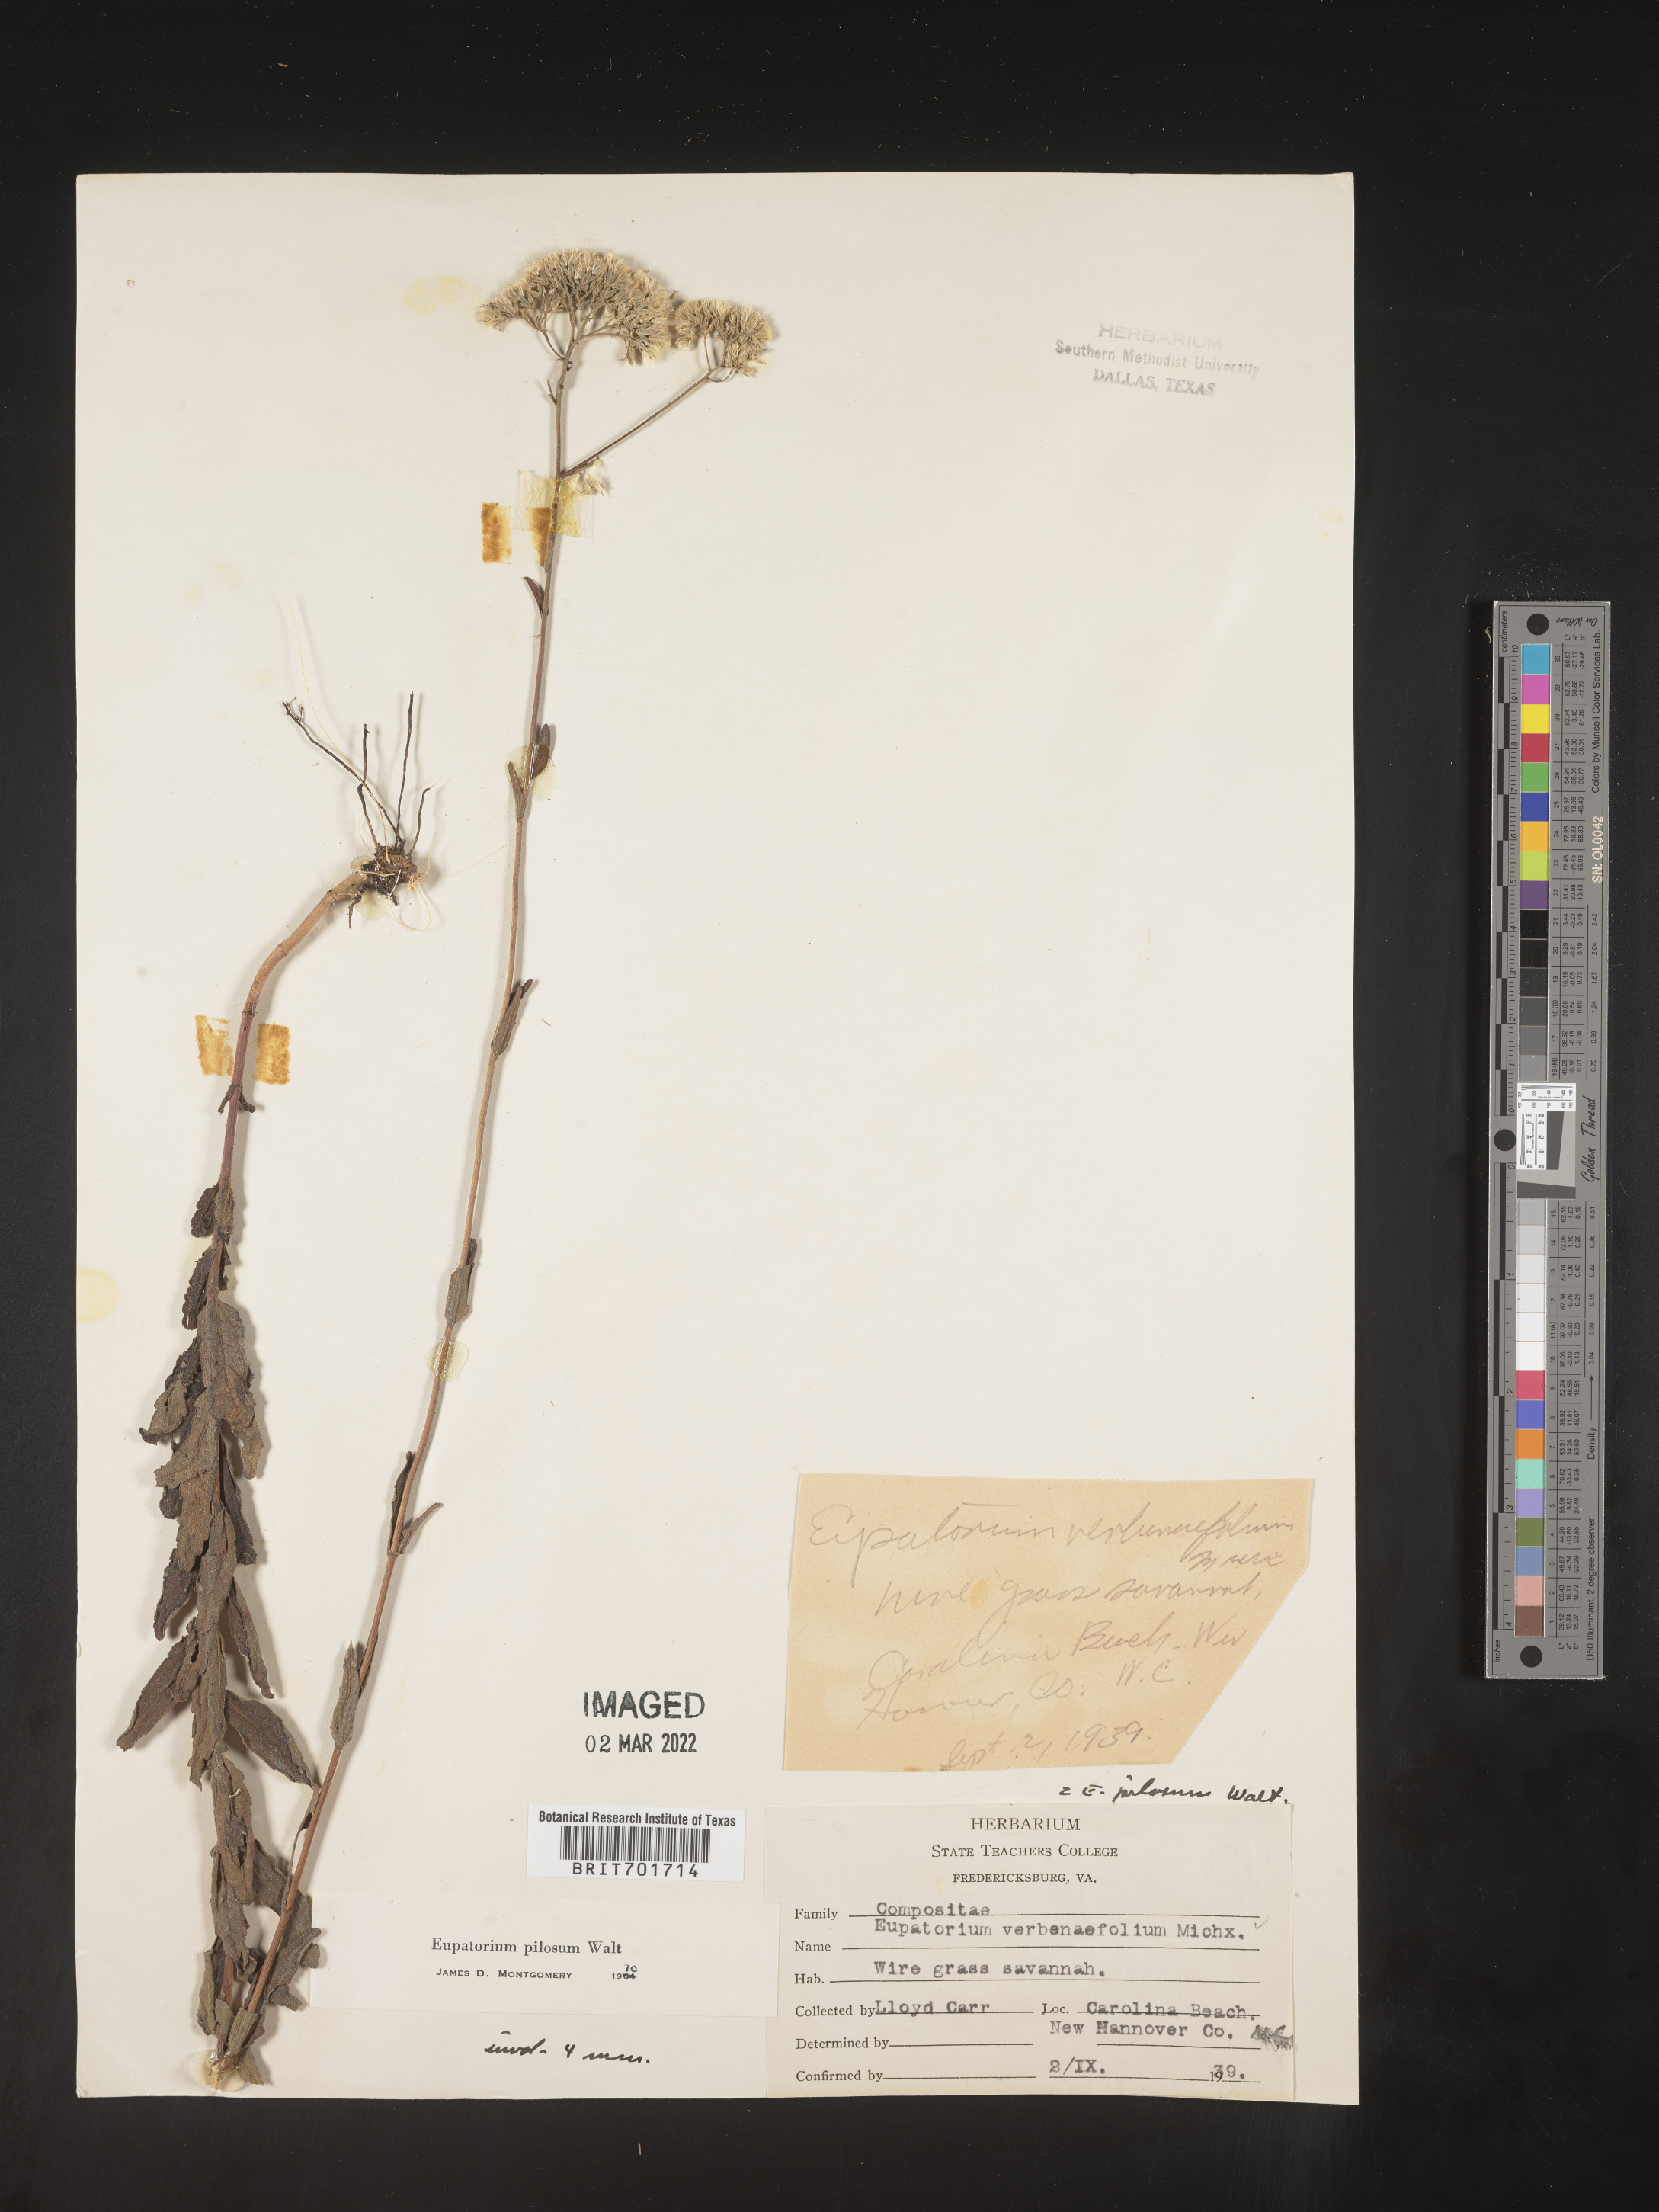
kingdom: Plantae
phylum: Tracheophyta
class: Magnoliopsida
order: Asterales
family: Asteraceae
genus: Eupatorium
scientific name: Eupatorium pilosum
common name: Rough boneset
